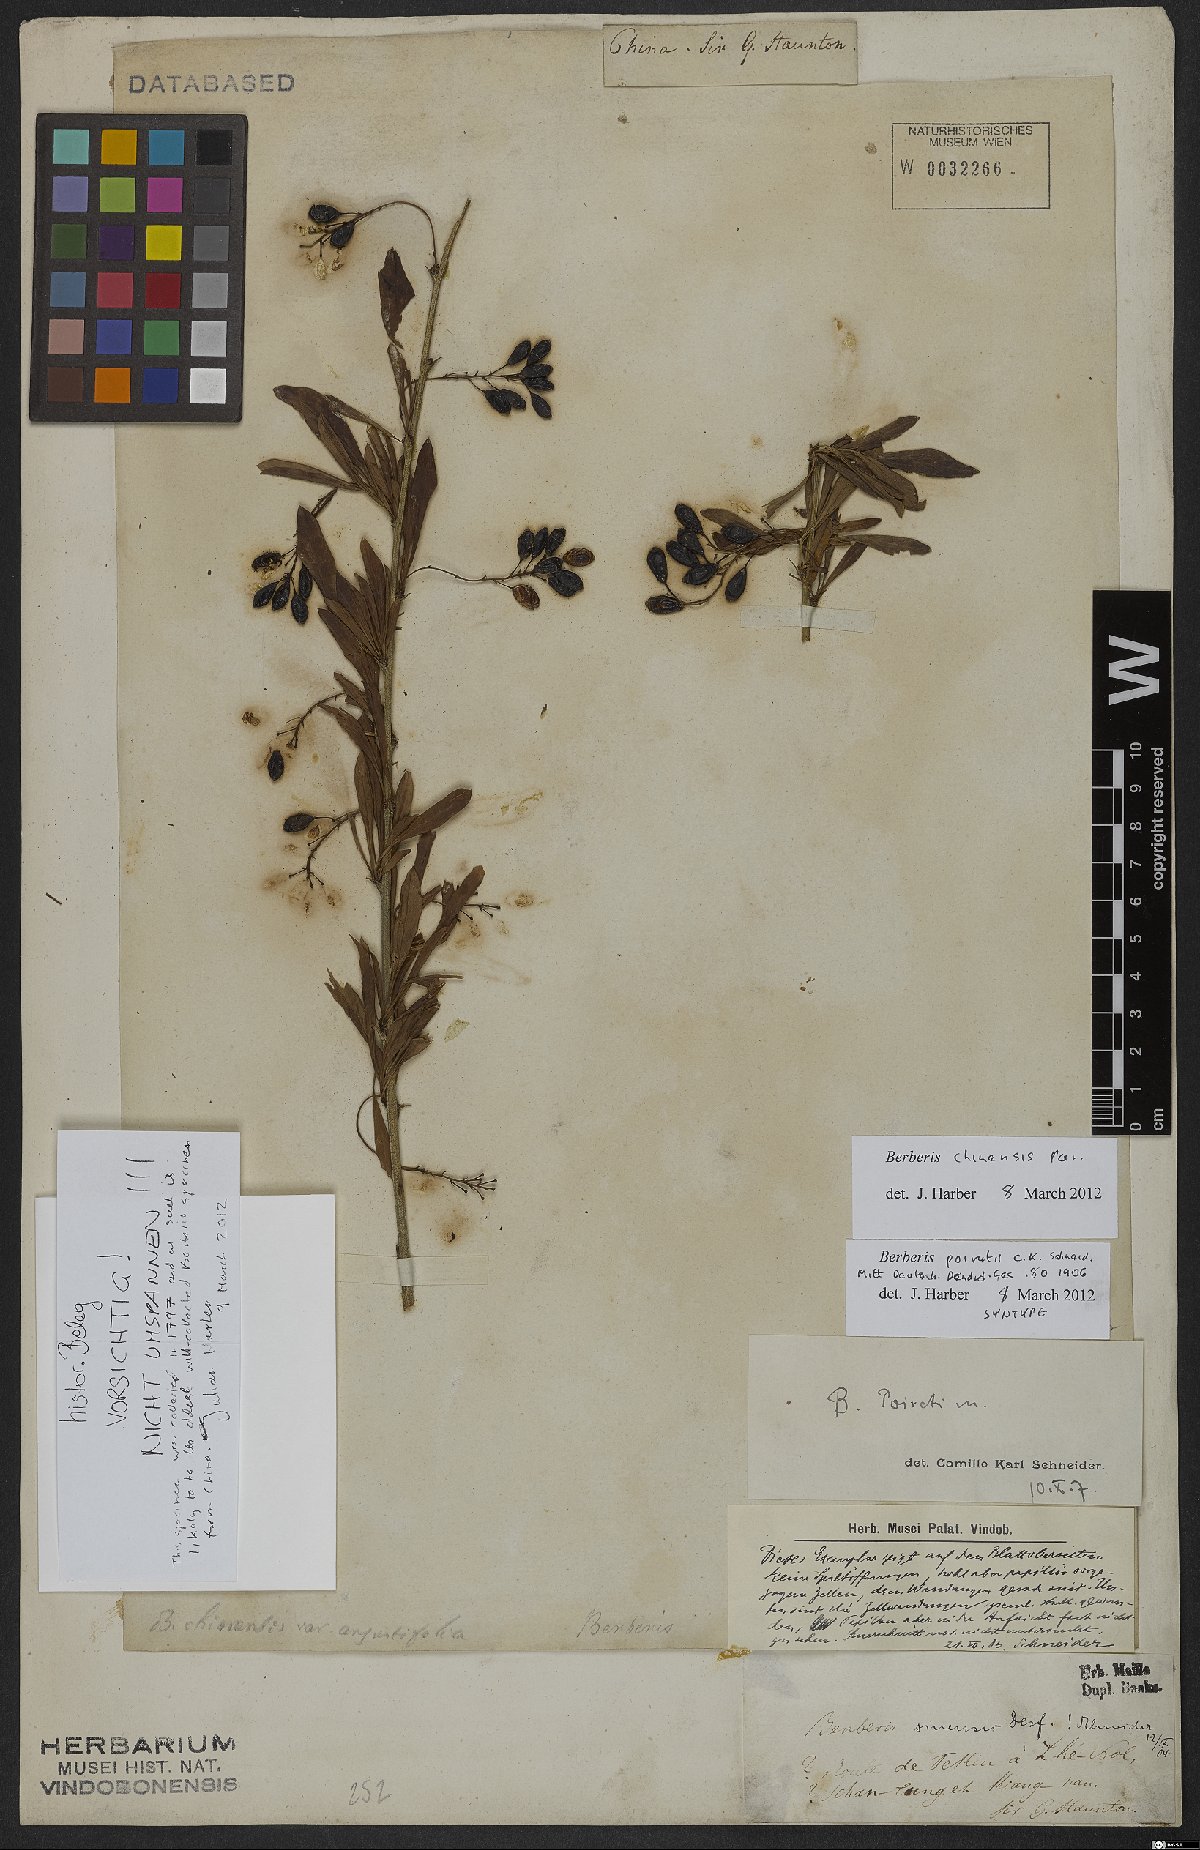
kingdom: Plantae
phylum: Tracheophyta
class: Magnoliopsida
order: Ranunculales
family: Berberidaceae
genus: Berberis
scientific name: Berberis chinensis
